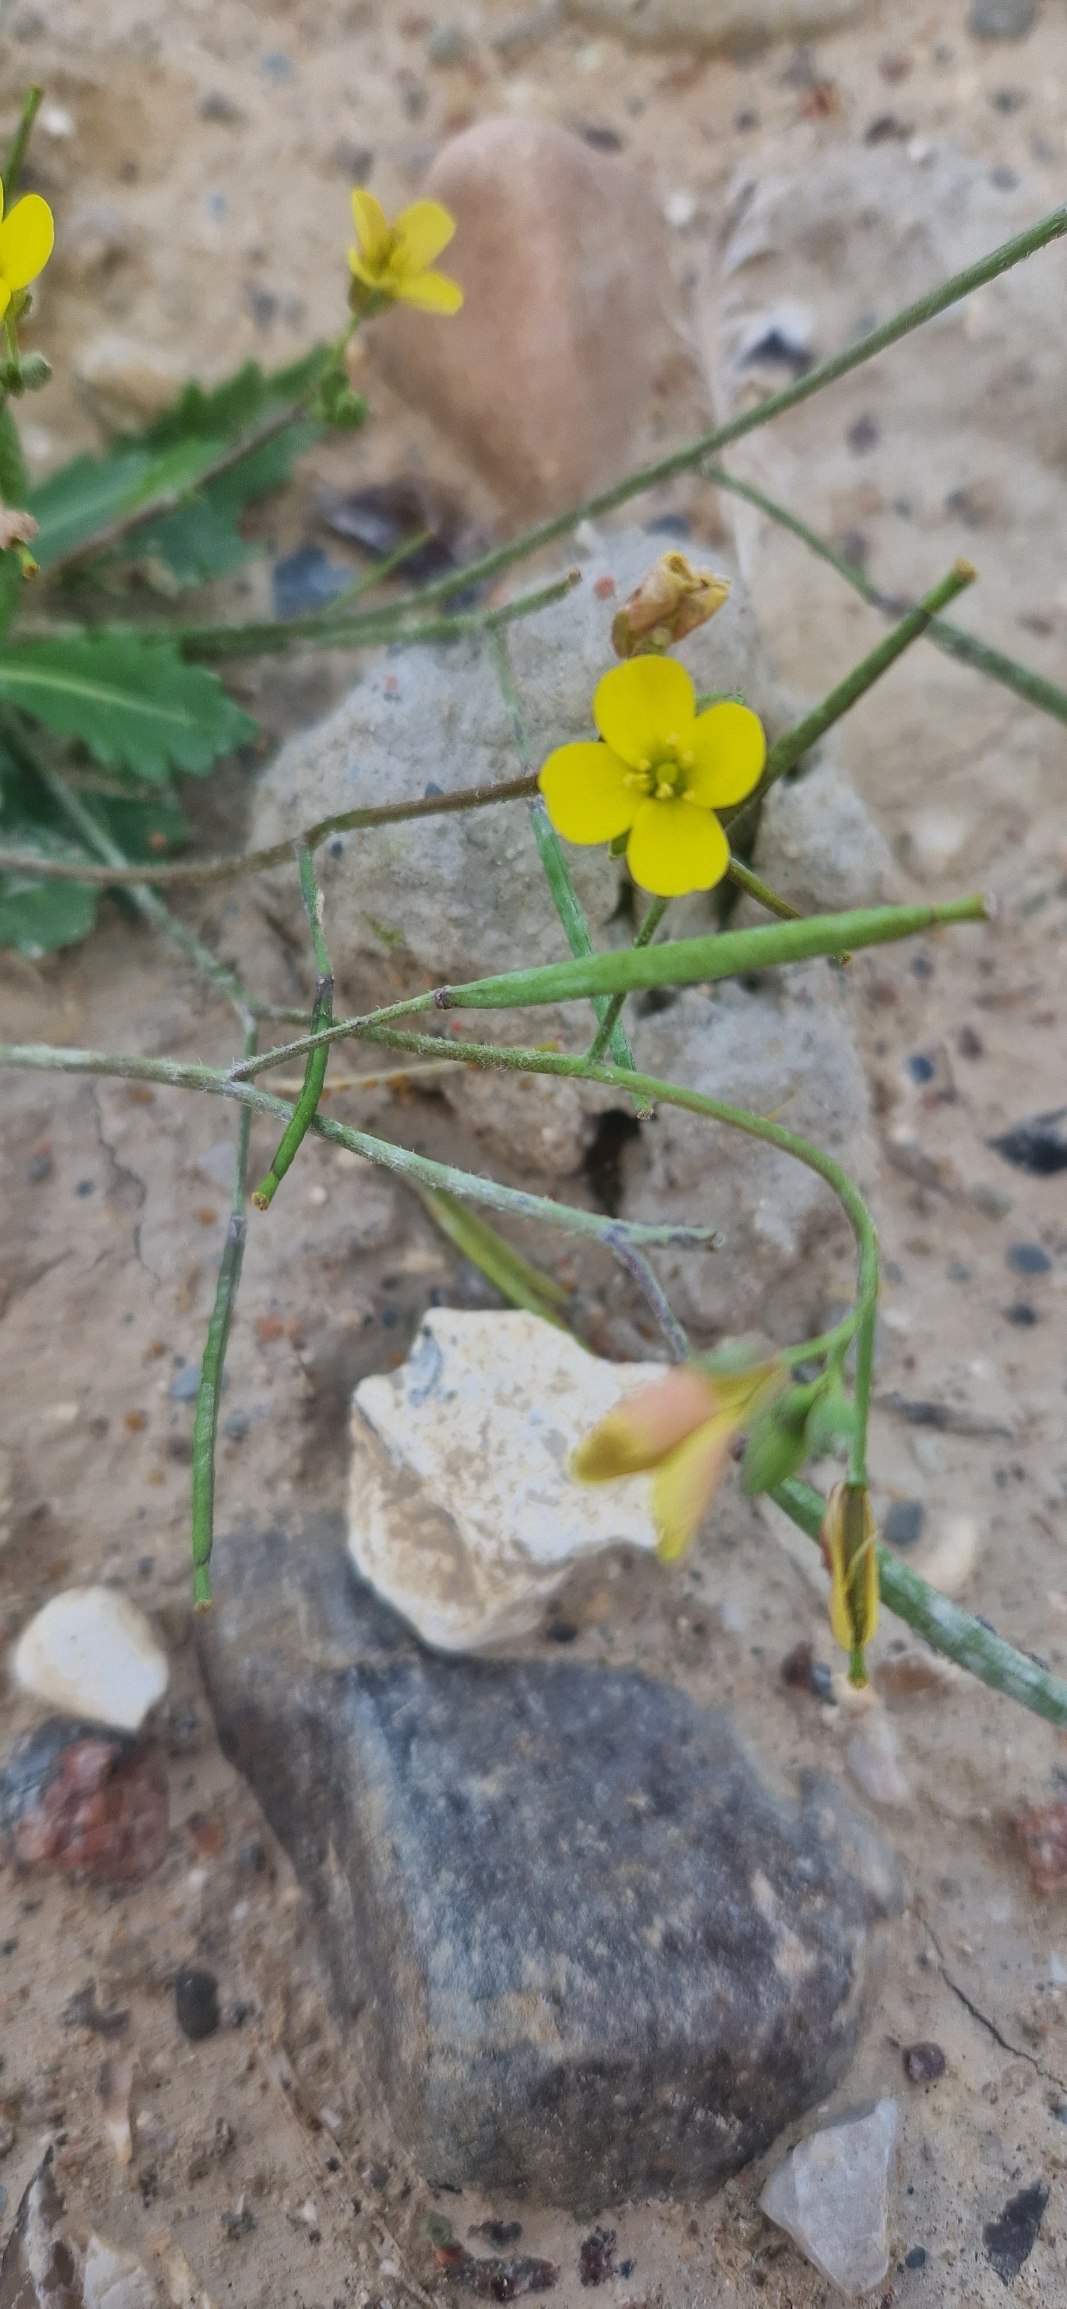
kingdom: Plantae
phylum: Tracheophyta
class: Magnoliopsida
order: Brassicales
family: Brassicaceae
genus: Diplotaxis
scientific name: Diplotaxis muralis
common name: Mursennep
